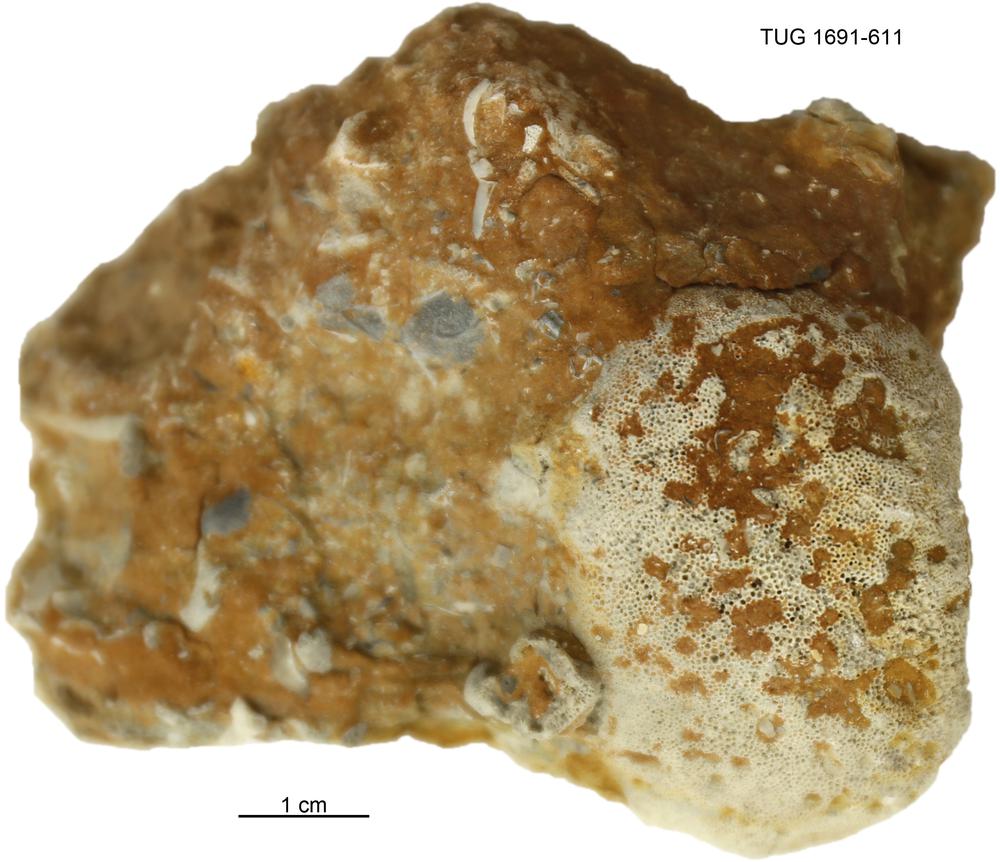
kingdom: Animalia
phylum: Bryozoa
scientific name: Bryozoa
